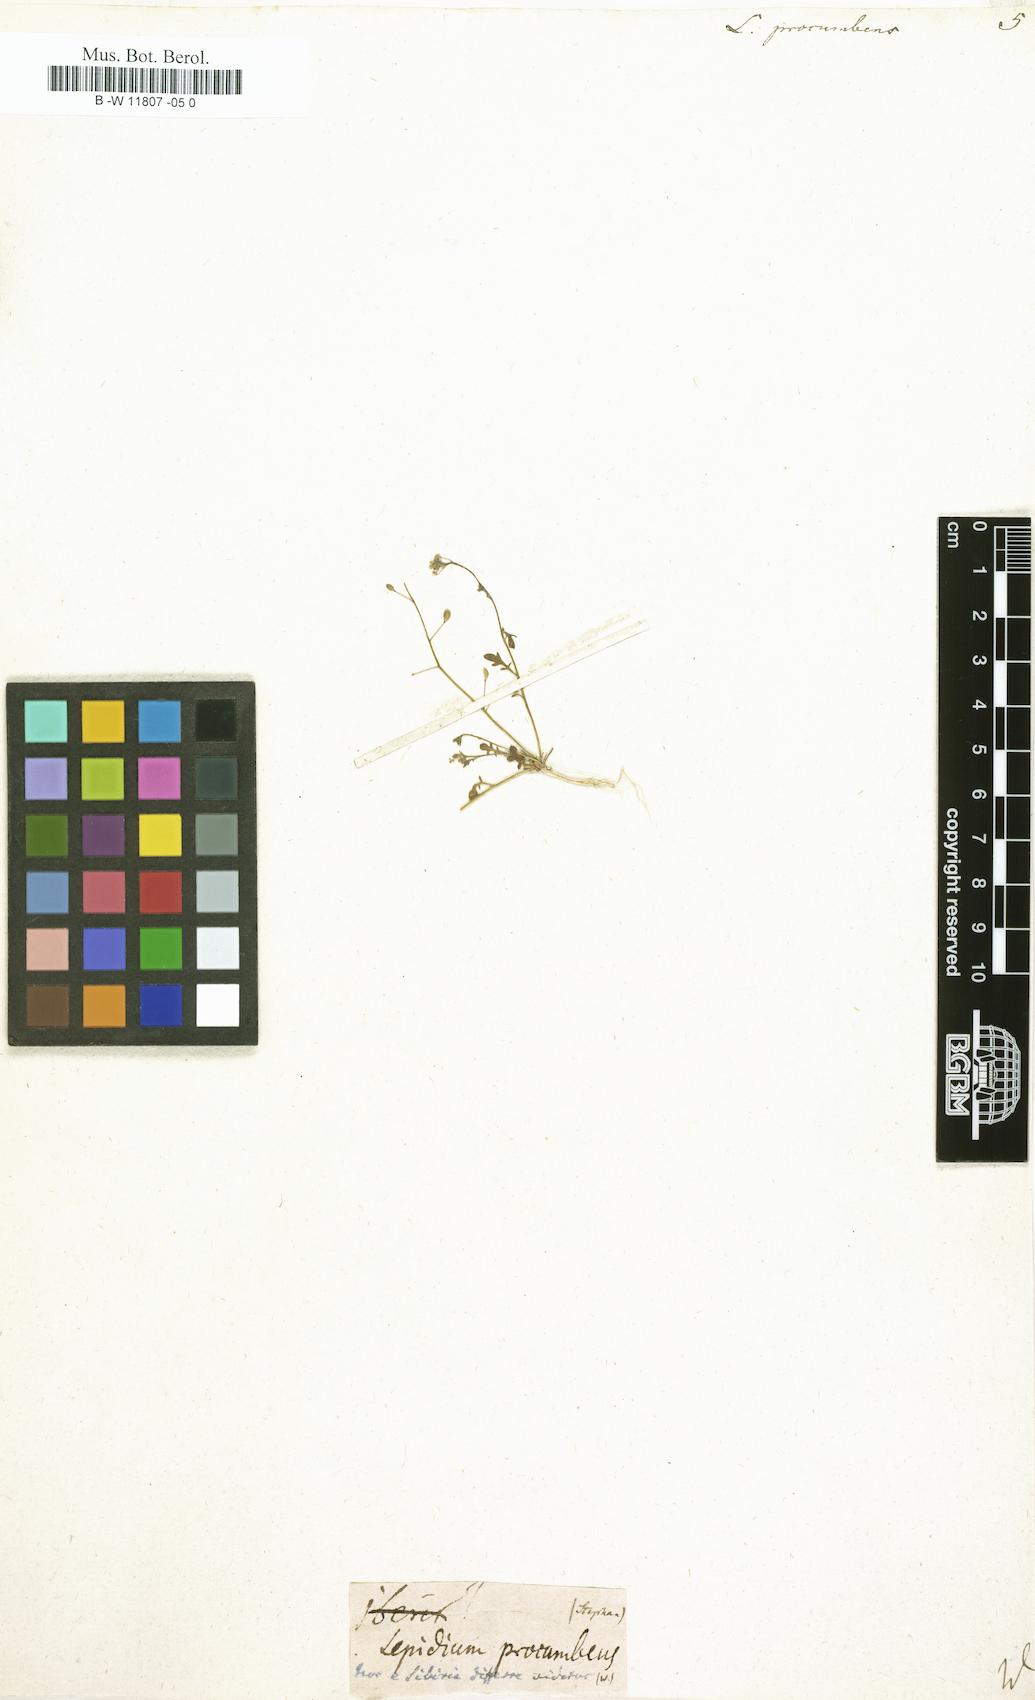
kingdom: Plantae
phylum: Tracheophyta
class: Magnoliopsida
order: Brassicales
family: Brassicaceae
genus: Hornungia
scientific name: Hornungia procumbens
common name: Oval purse
